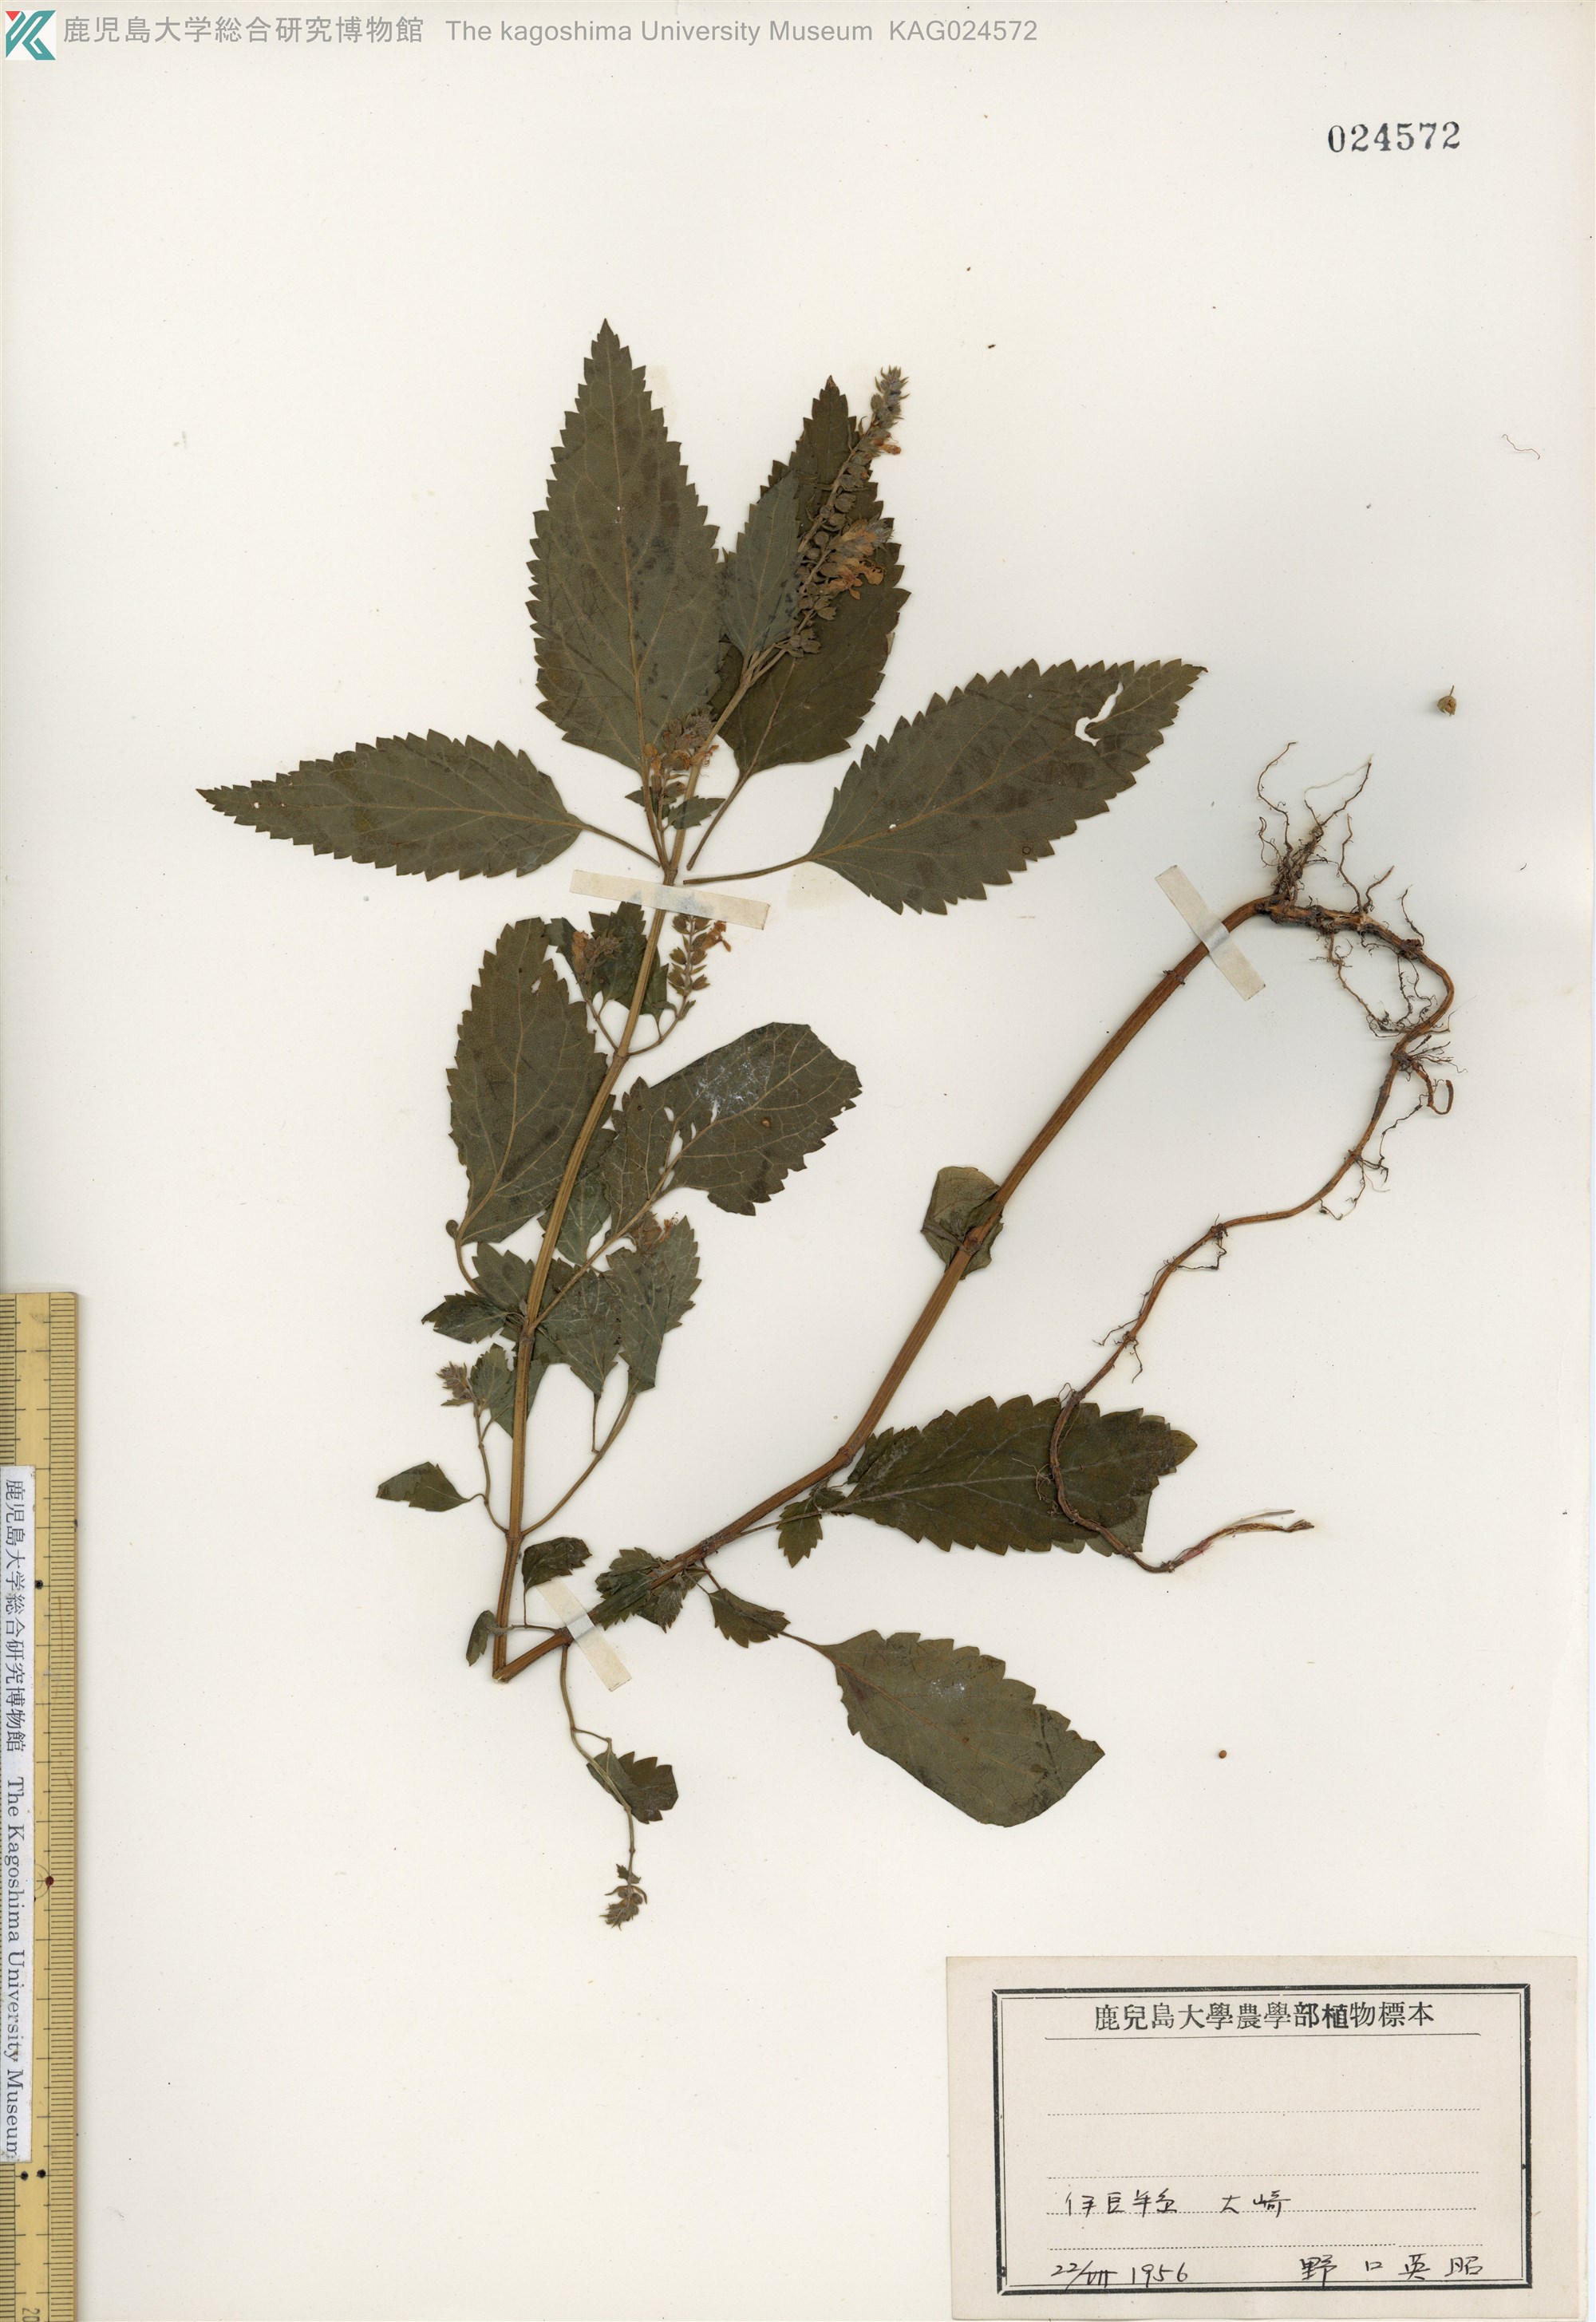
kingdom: Plantae
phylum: Tracheophyta
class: Magnoliopsida
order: Lamiales
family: Lamiaceae
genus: Teucrium
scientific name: Teucrium viscidum
